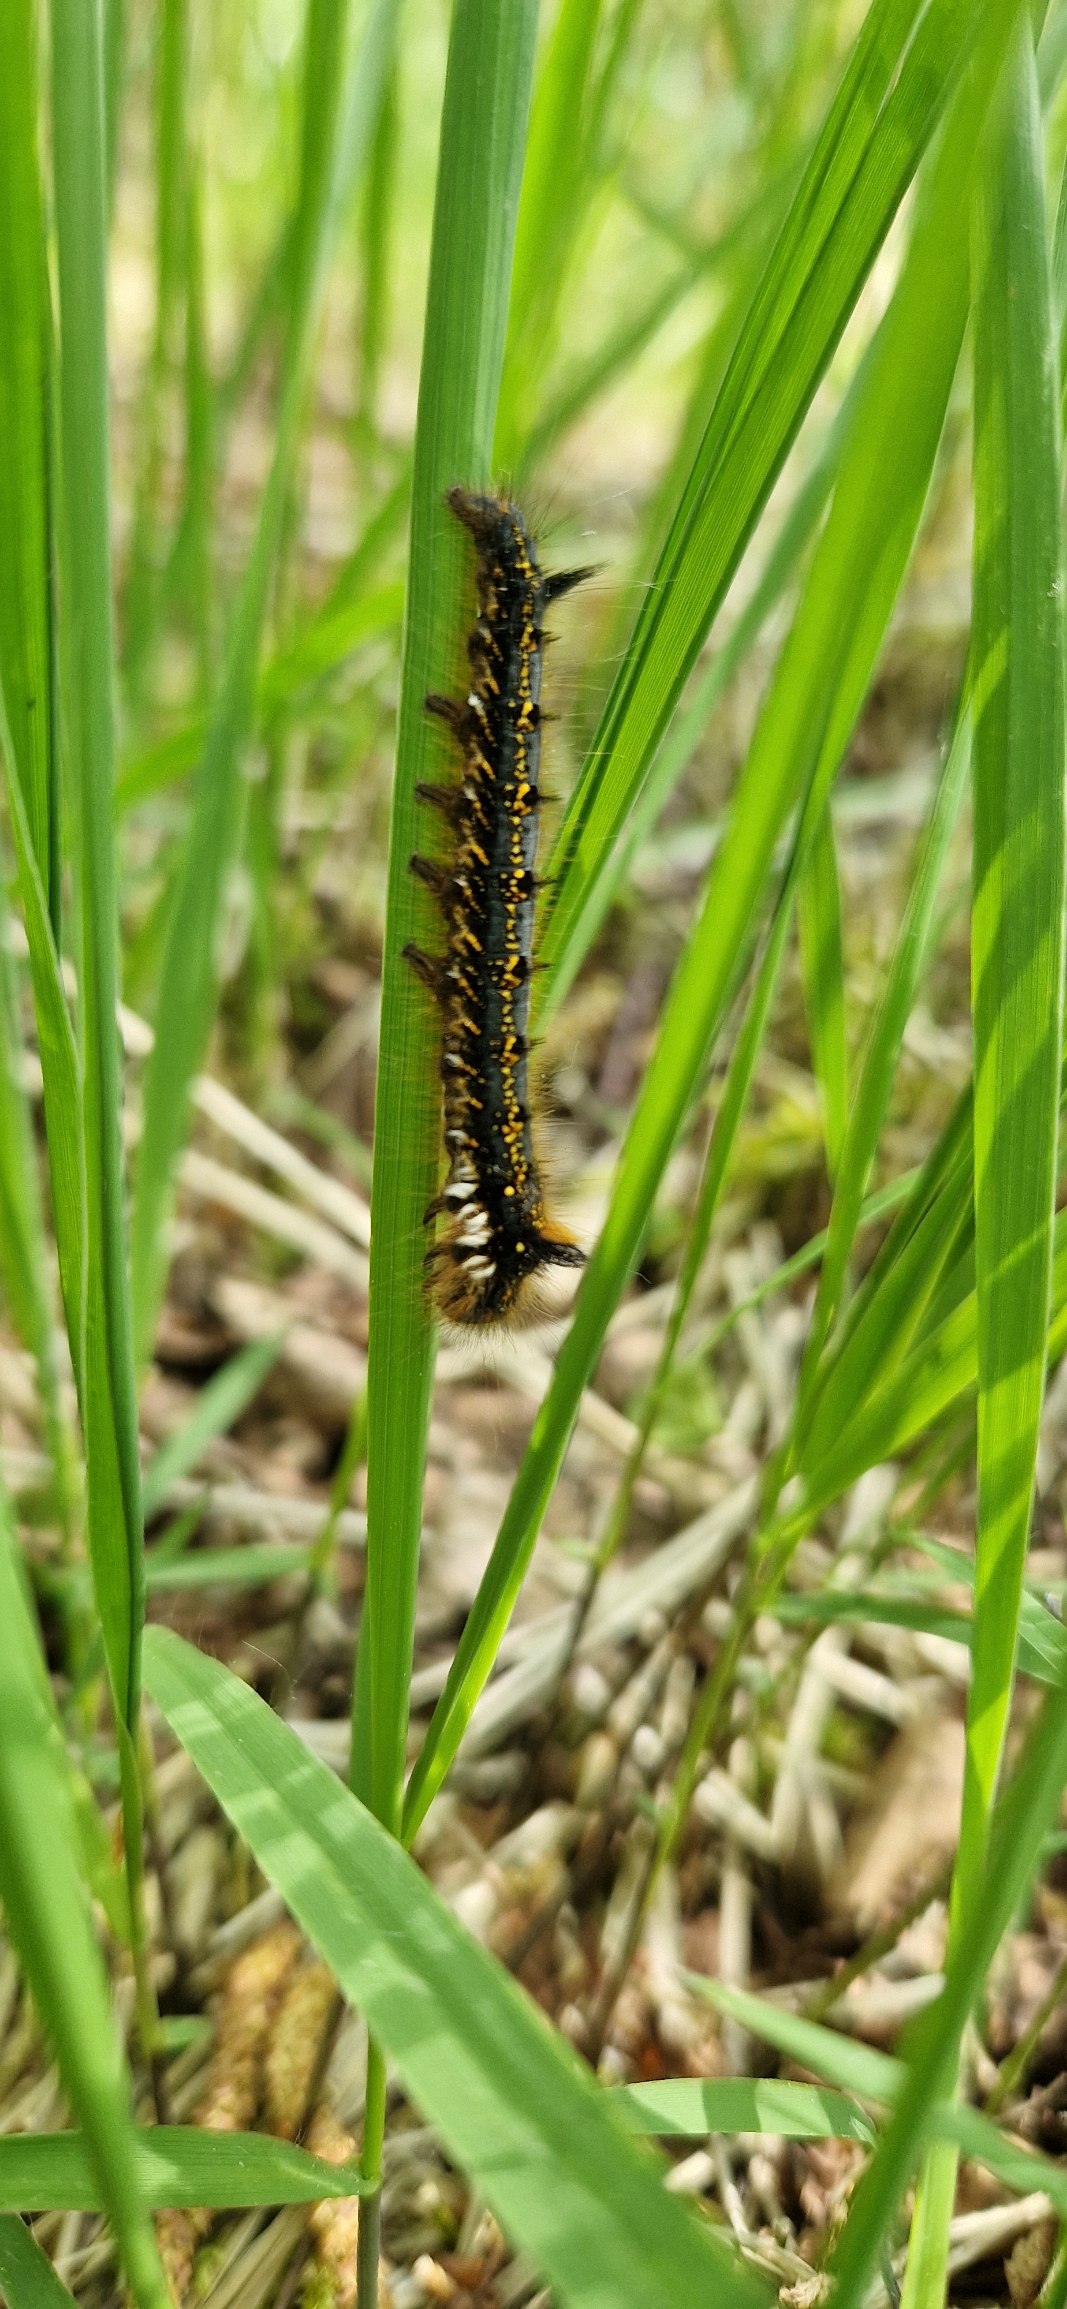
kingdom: Animalia
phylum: Arthropoda
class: Insecta
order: Lepidoptera
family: Lasiocampidae
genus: Euthrix
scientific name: Euthrix potatoria
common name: Græsspinder
